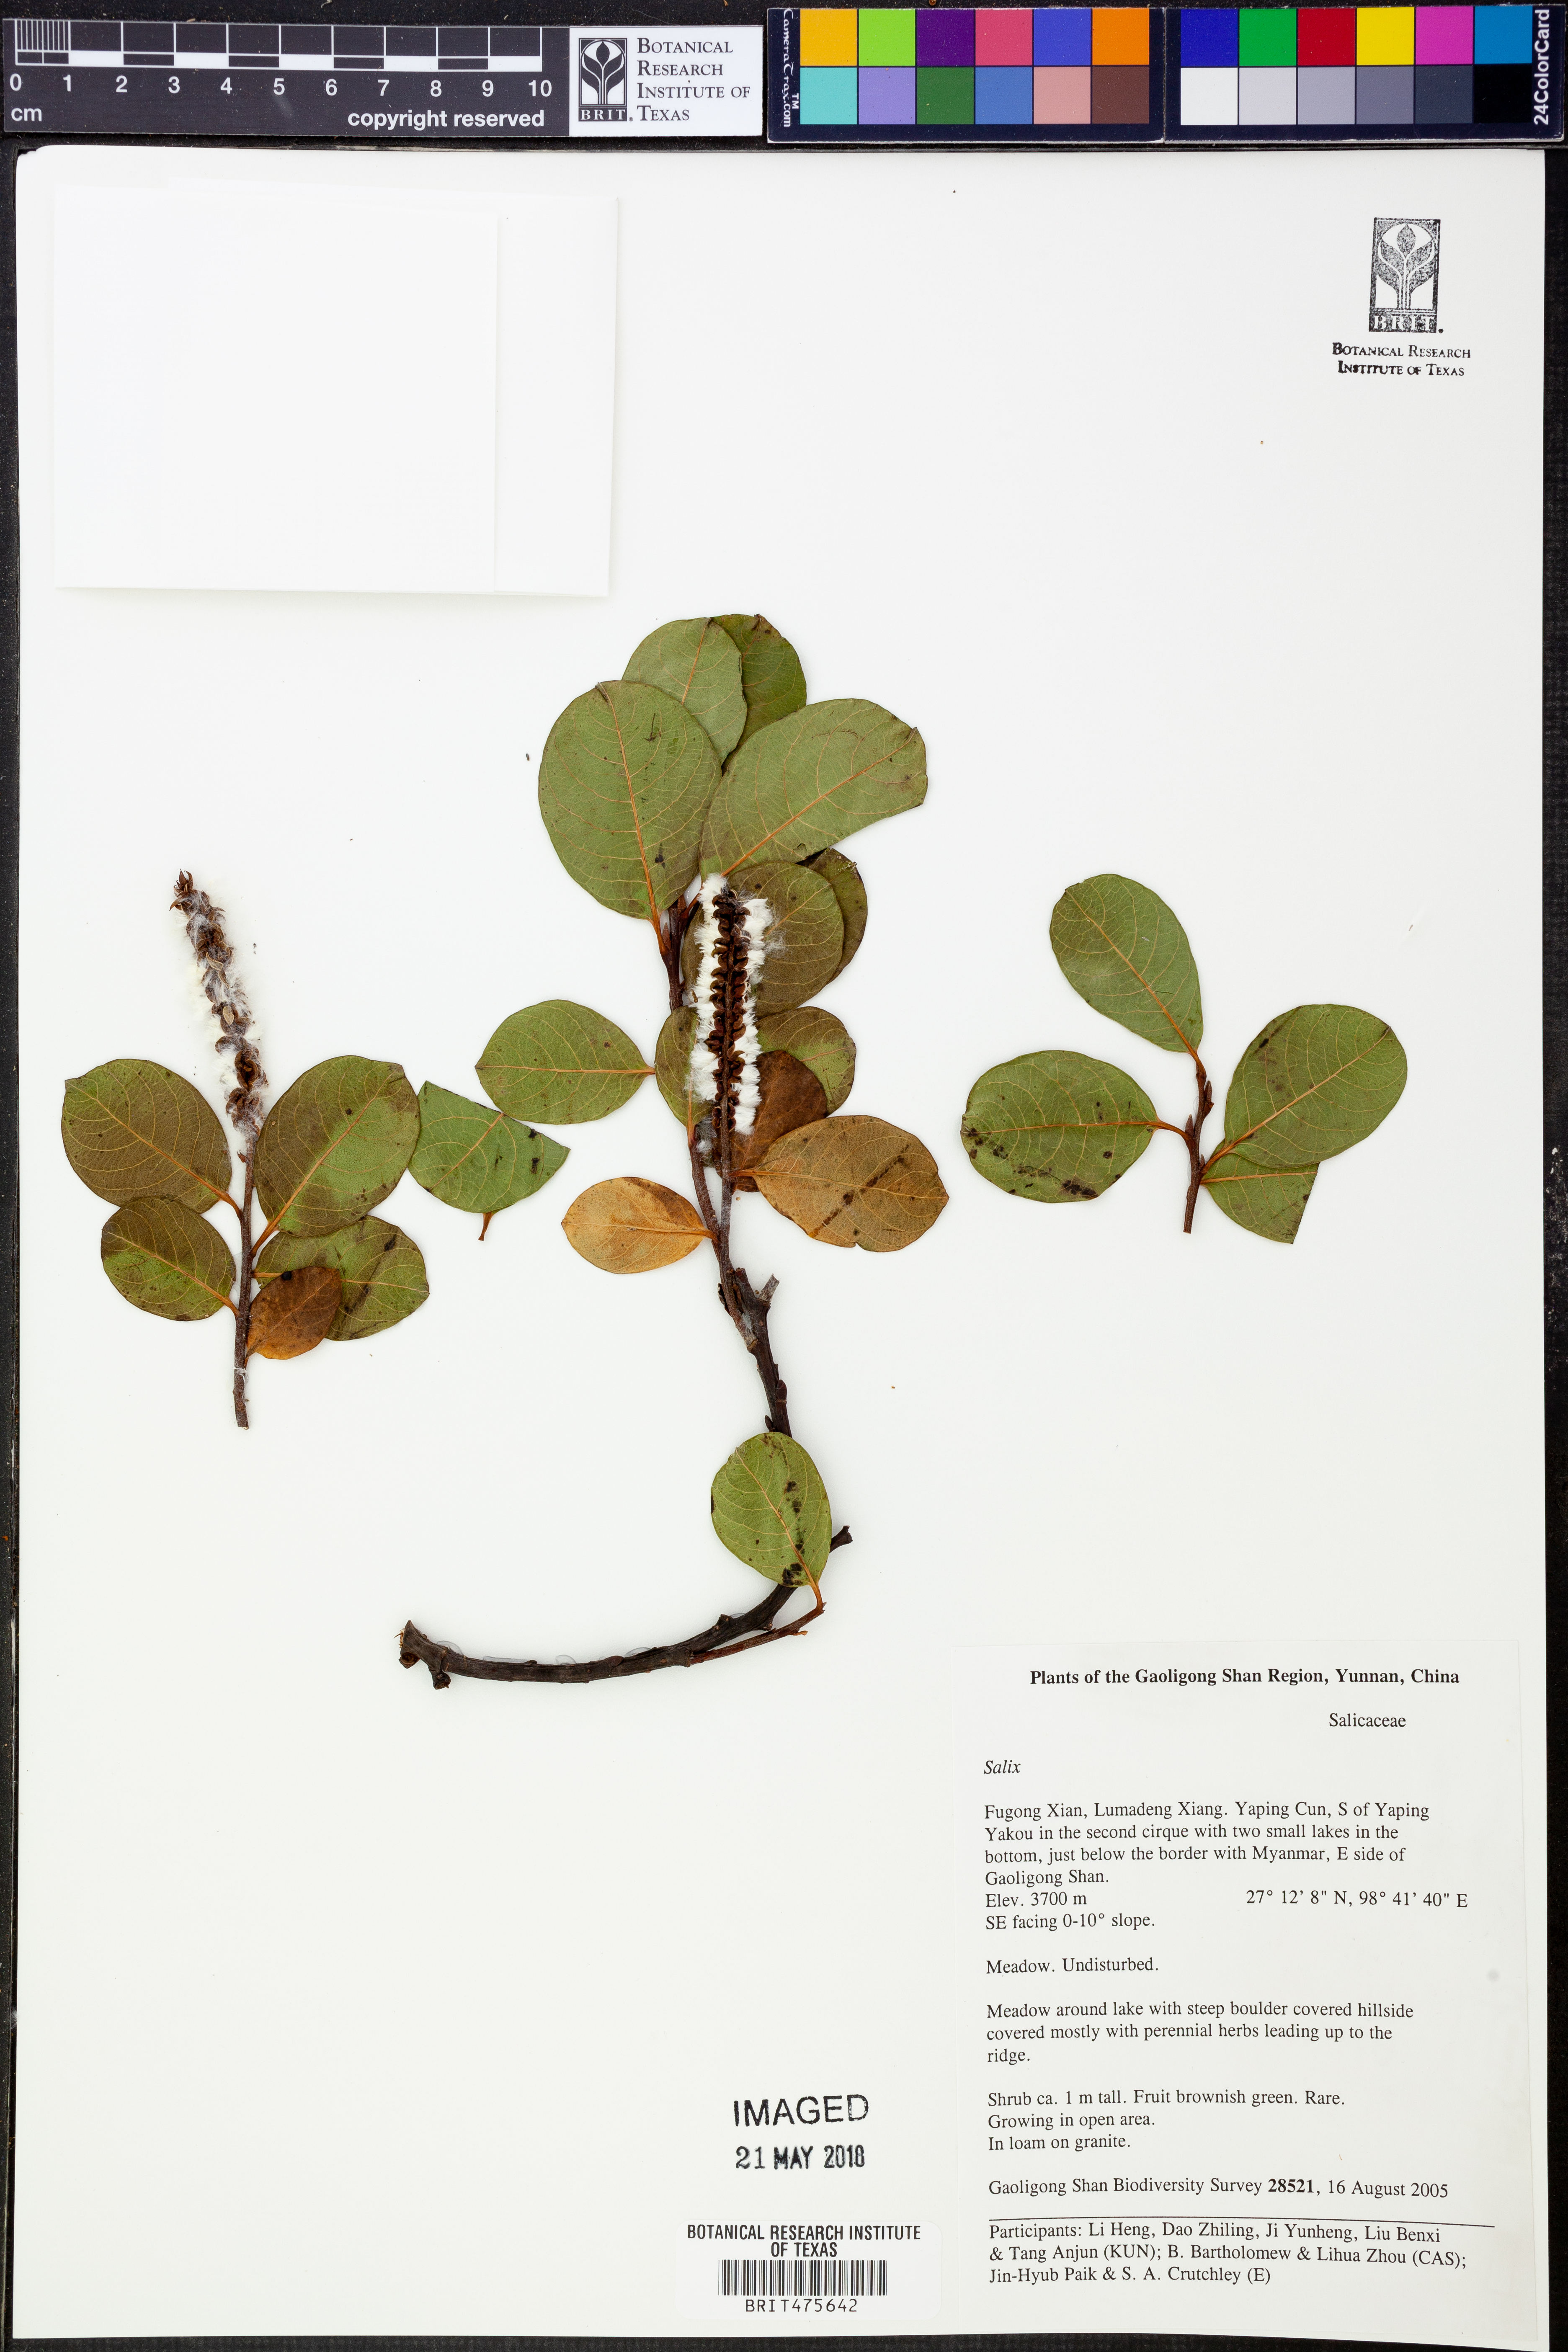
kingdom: Plantae
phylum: Tracheophyta
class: Magnoliopsida
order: Malpighiales
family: Salicaceae
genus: Salix
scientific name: Salix
